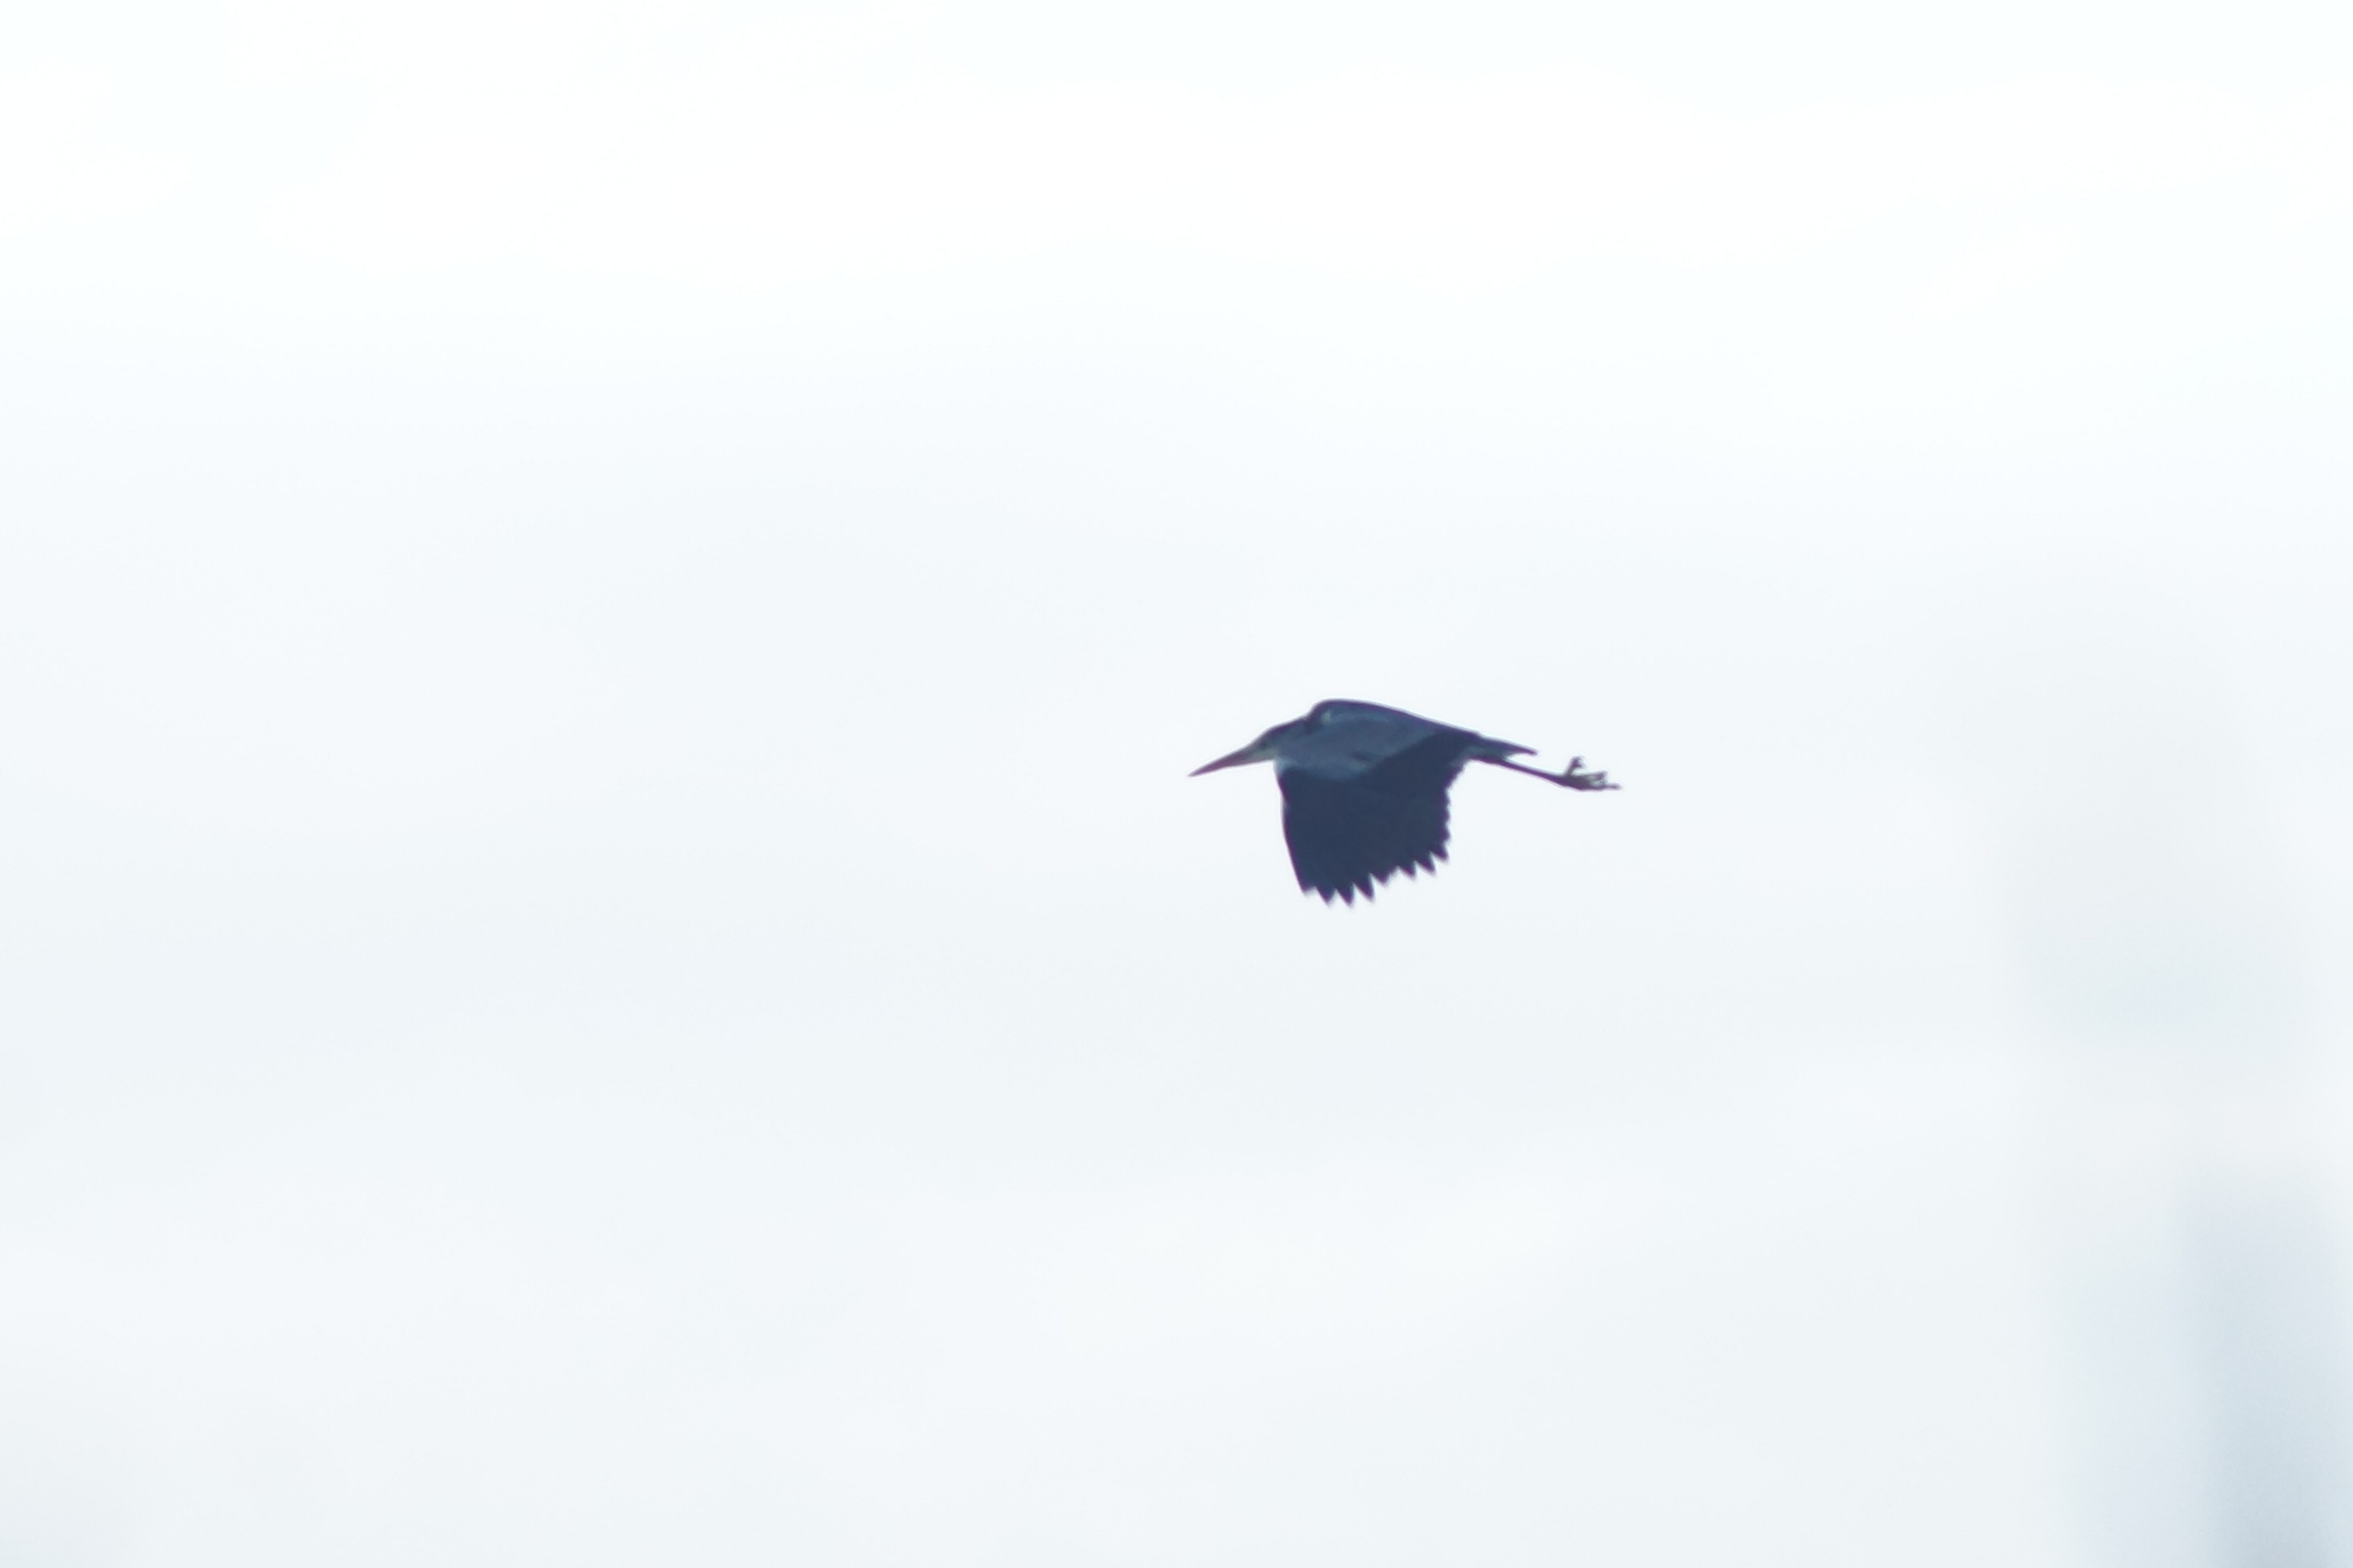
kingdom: Animalia
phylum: Chordata
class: Aves
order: Pelecaniformes
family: Ardeidae
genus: Ardea
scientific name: Ardea cinerea
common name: Fiskehejre
